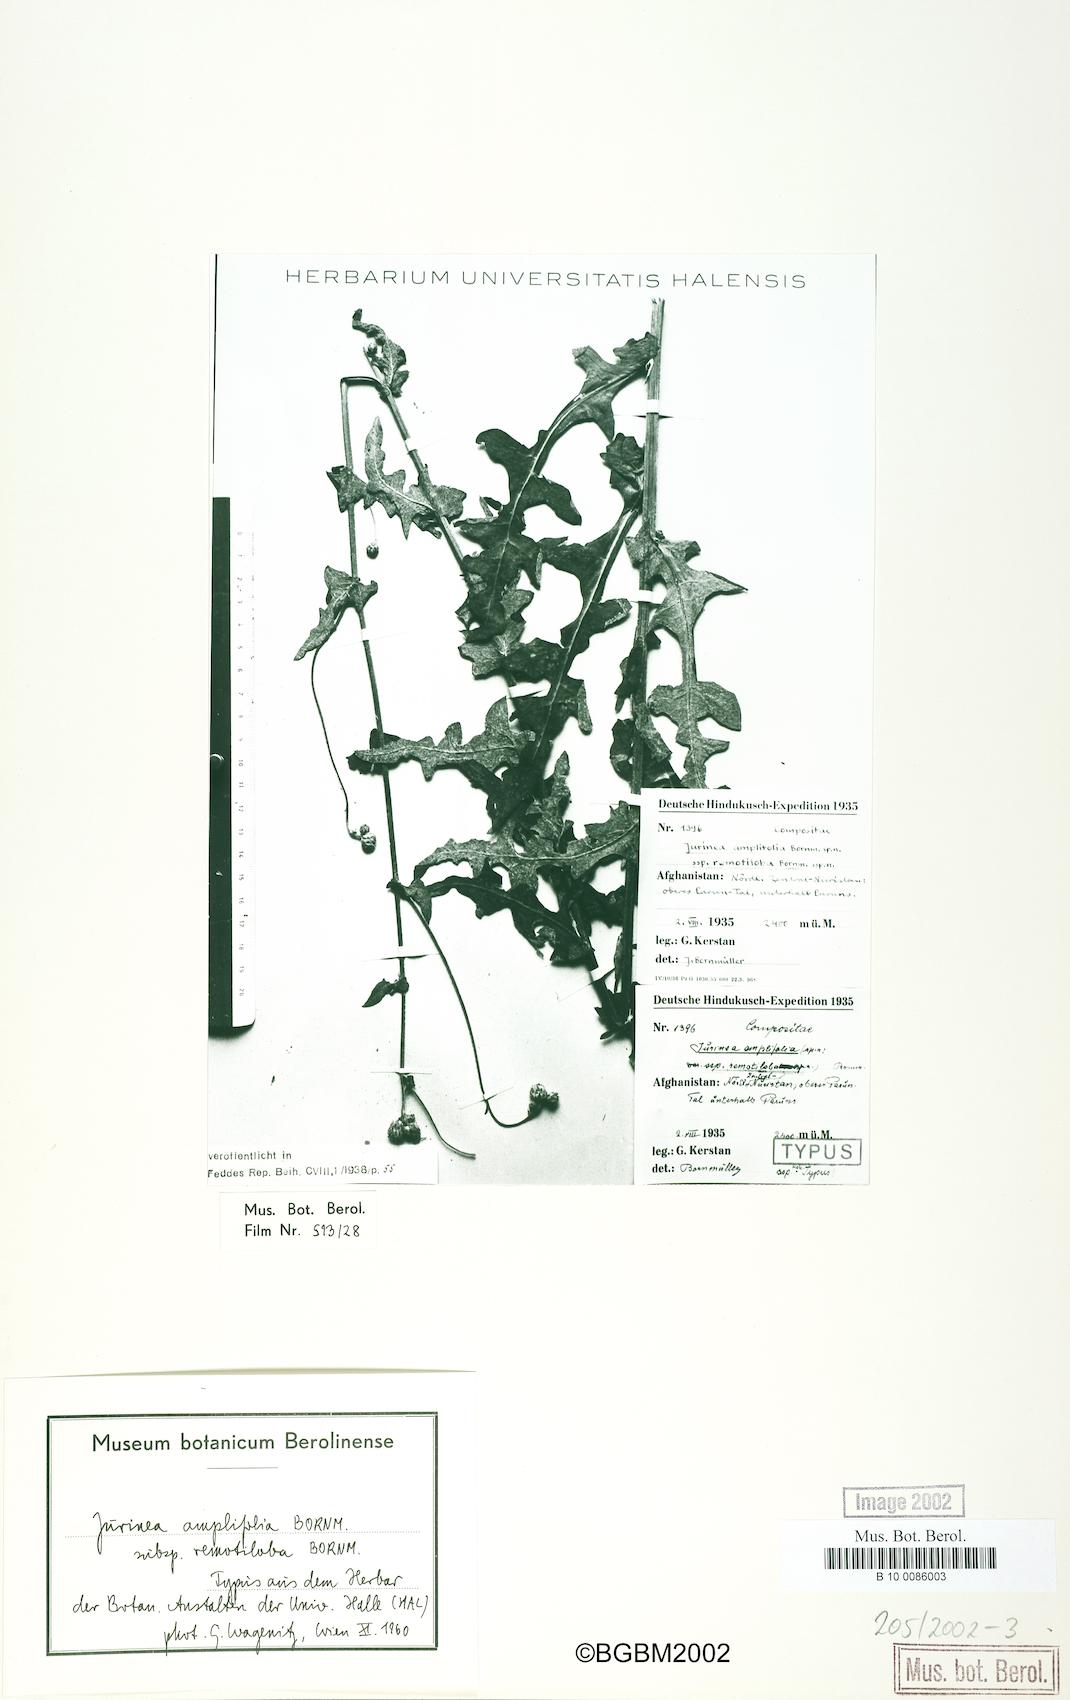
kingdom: Plantae
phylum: Tracheophyta
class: Magnoliopsida
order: Asterales
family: Asteraceae
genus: Saussurea
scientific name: Saussurea afghana
